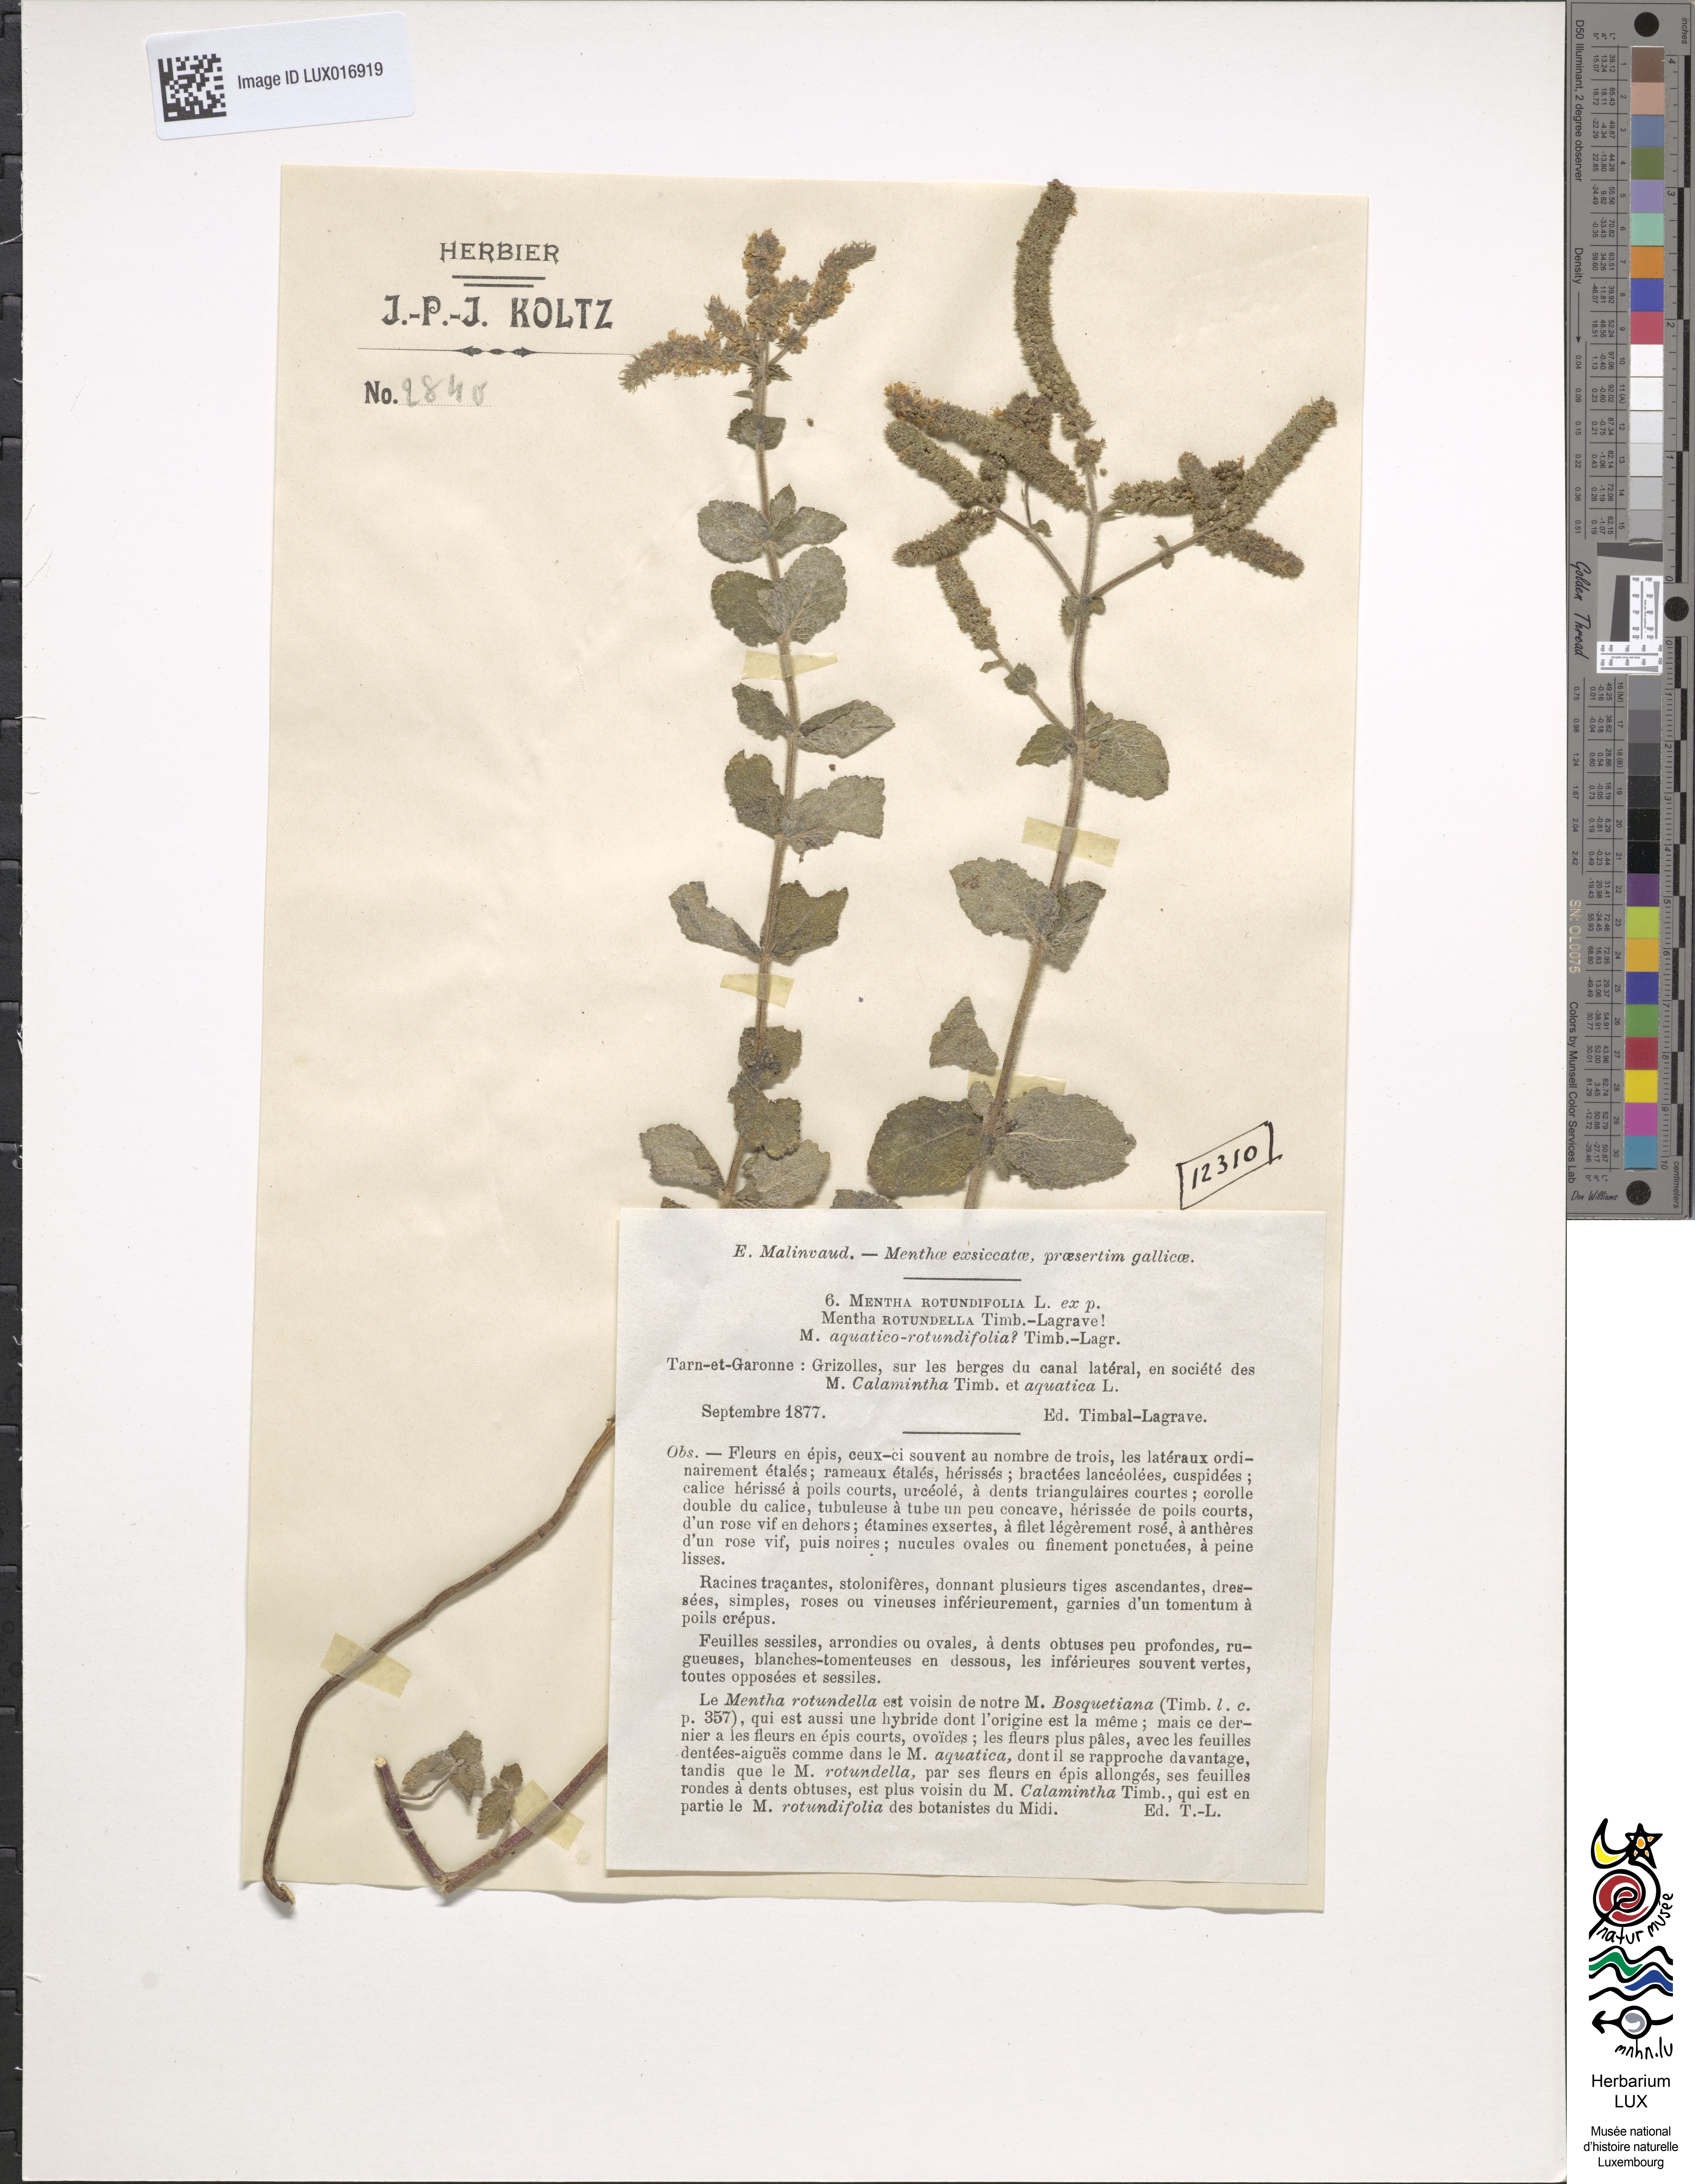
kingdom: Plantae
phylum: Tracheophyta
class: Magnoliopsida
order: Lamiales
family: Lamiaceae
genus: Mentha
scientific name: Mentha rotundifolia
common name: Bigleaf mint
